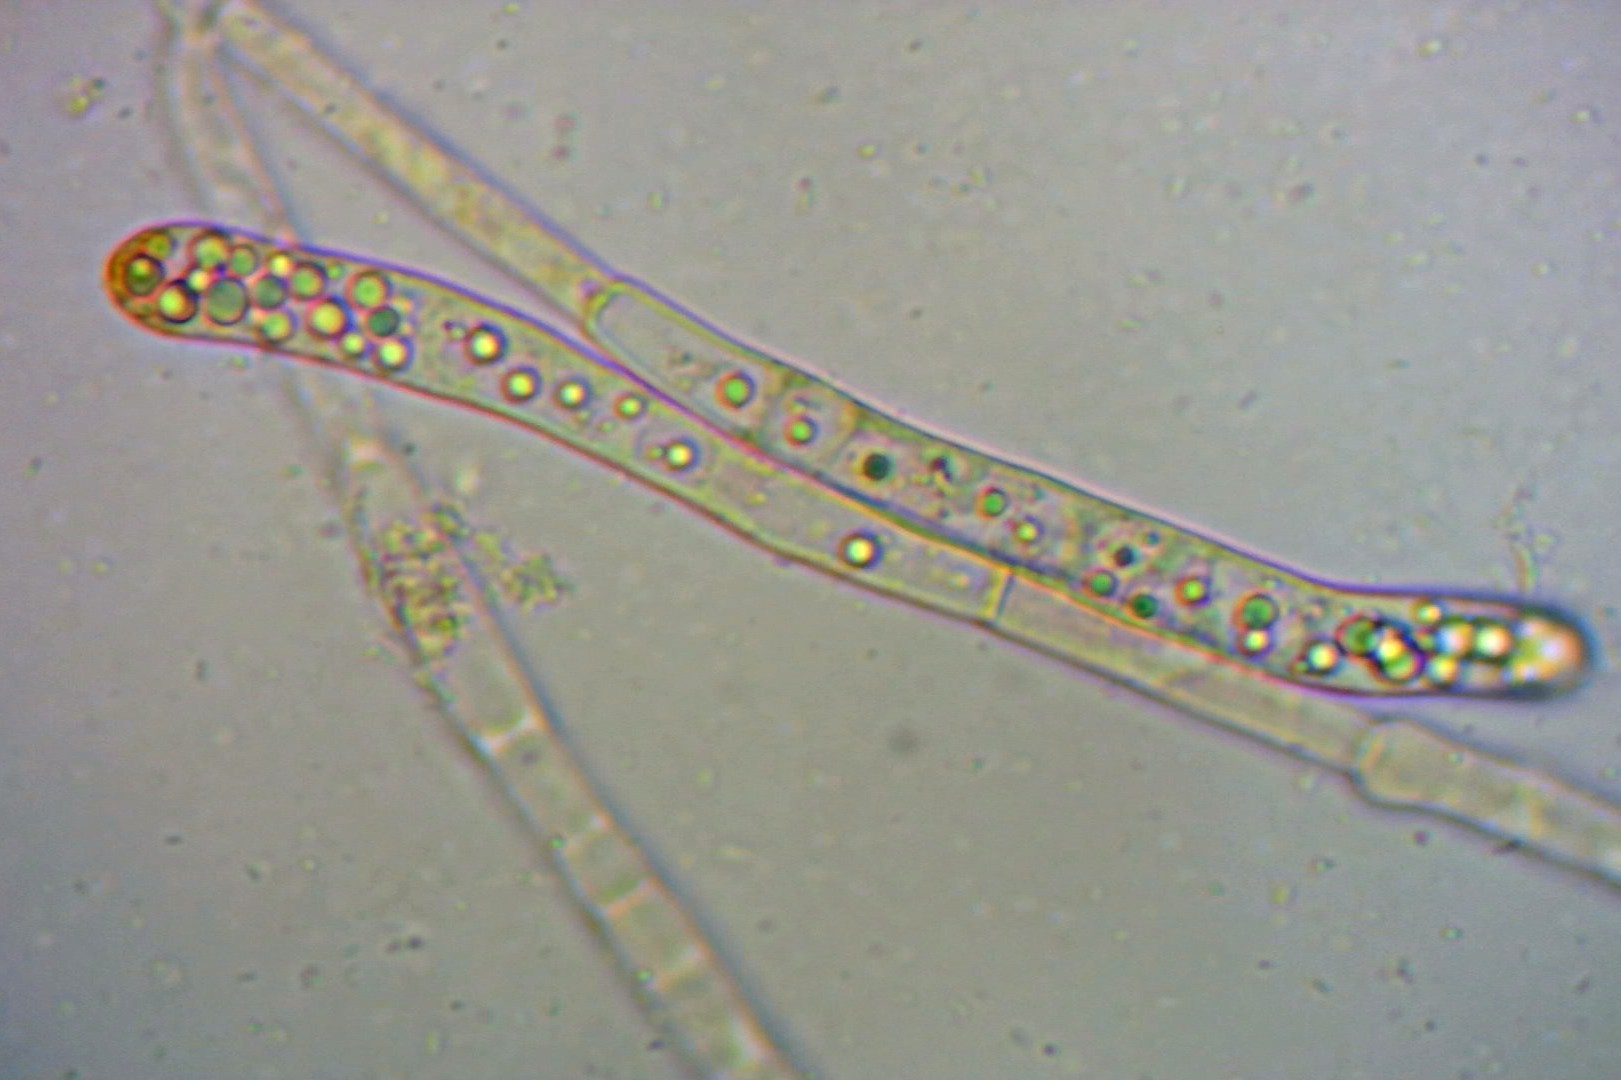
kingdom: Fungi
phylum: Ascomycota
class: Pezizomycetes
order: Pezizales
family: Pyronemataceae
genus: Octospora
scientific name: Octospora rubens
